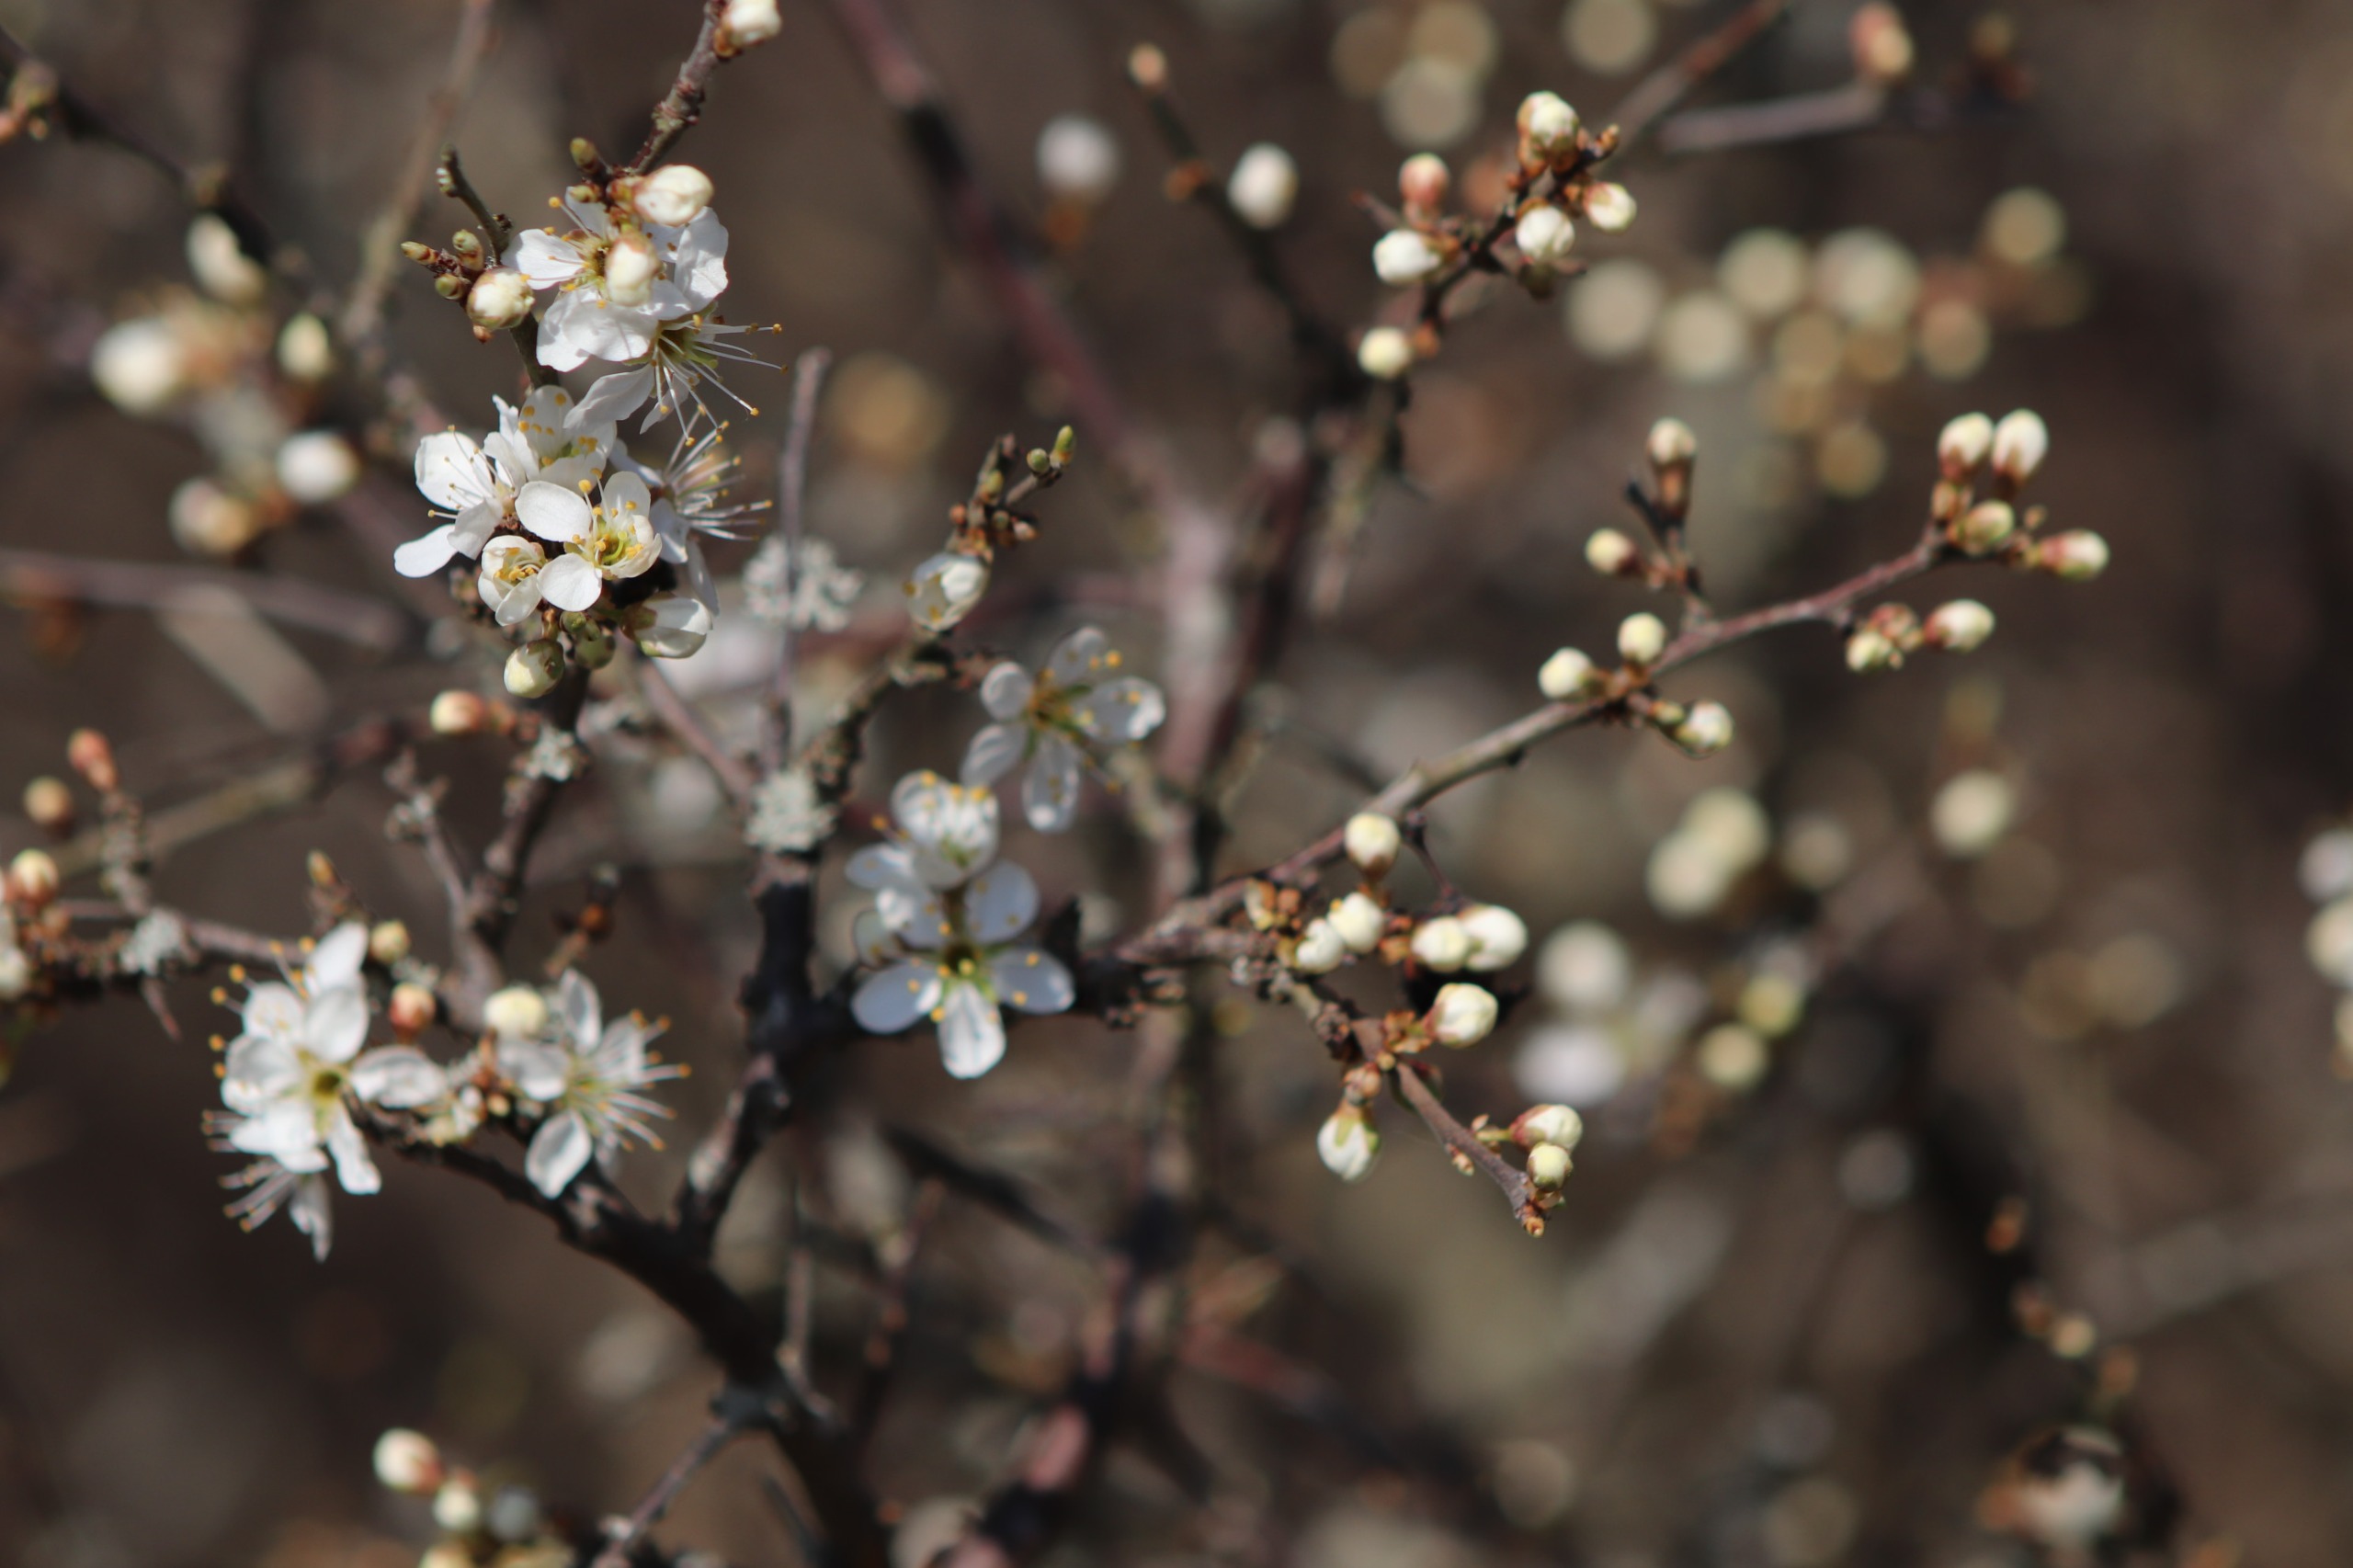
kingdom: Plantae
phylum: Tracheophyta
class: Magnoliopsida
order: Rosales
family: Rosaceae
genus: Prunus
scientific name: Prunus spinosa
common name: Slåen
